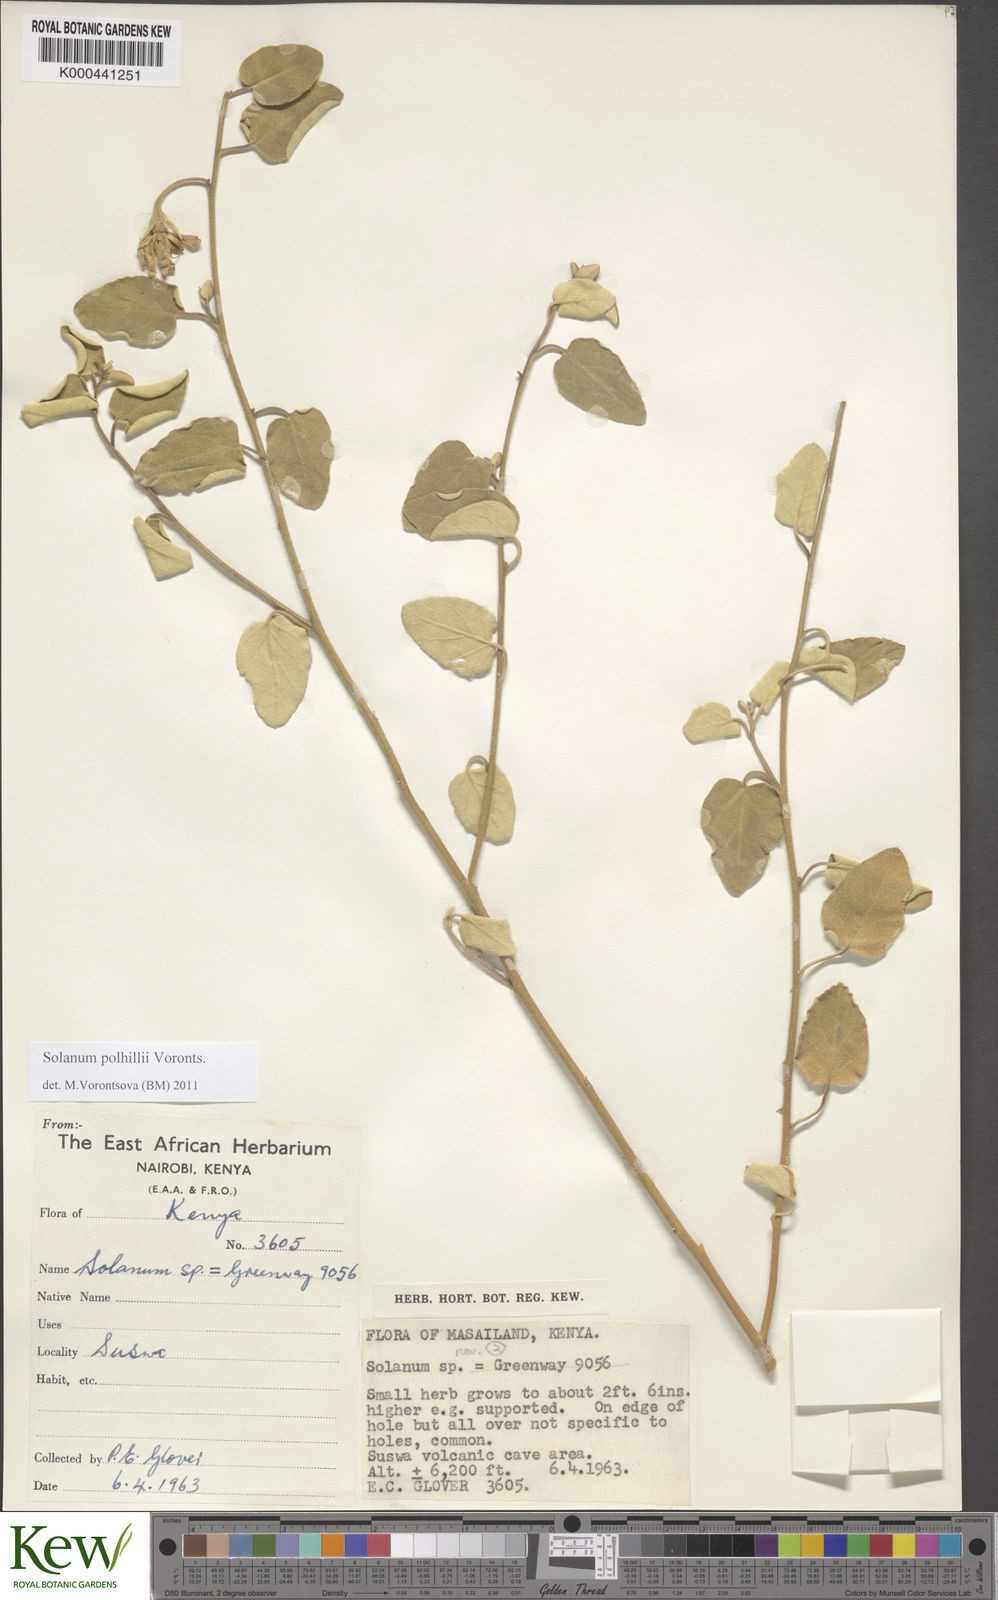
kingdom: Plantae
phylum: Tracheophyta
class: Magnoliopsida
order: Solanales
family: Solanaceae
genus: Solanum
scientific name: Solanum polhillii
